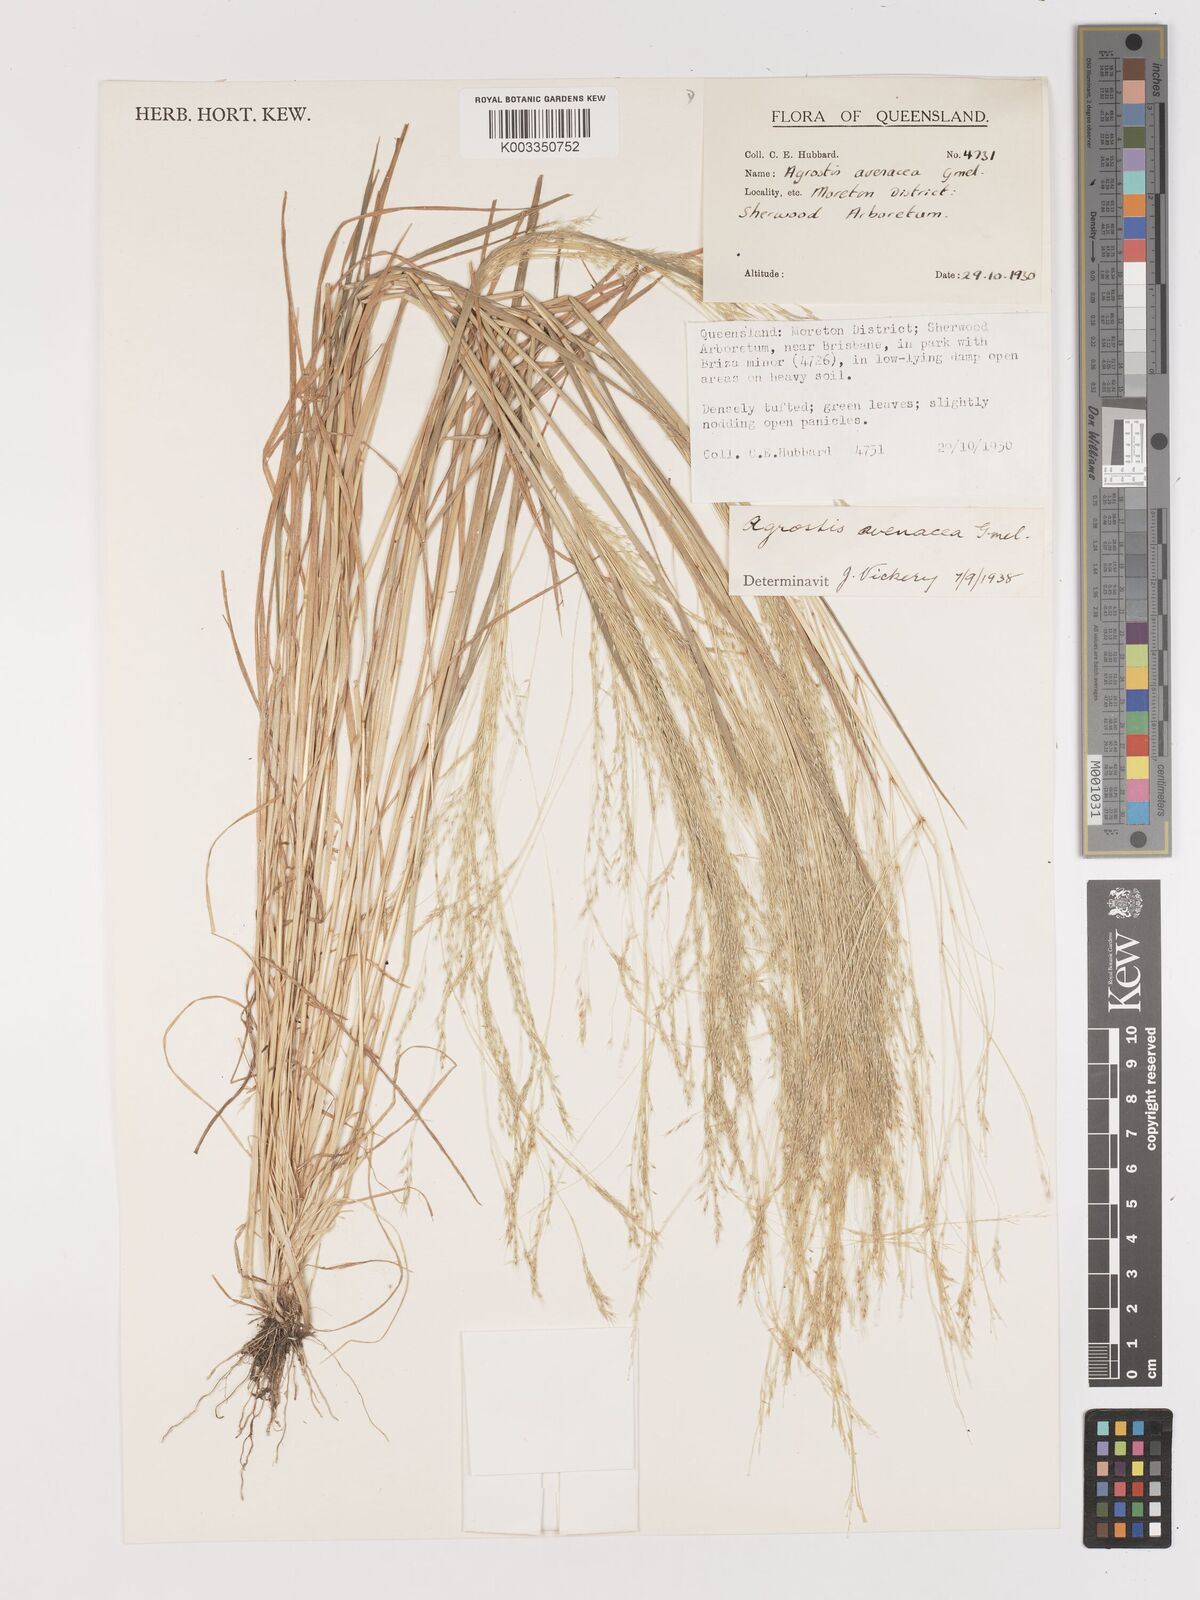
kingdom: Plantae
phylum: Tracheophyta
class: Liliopsida
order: Poales
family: Poaceae
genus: Lachnagrostis
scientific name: Lachnagrostis filiformis
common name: Bentgrass
